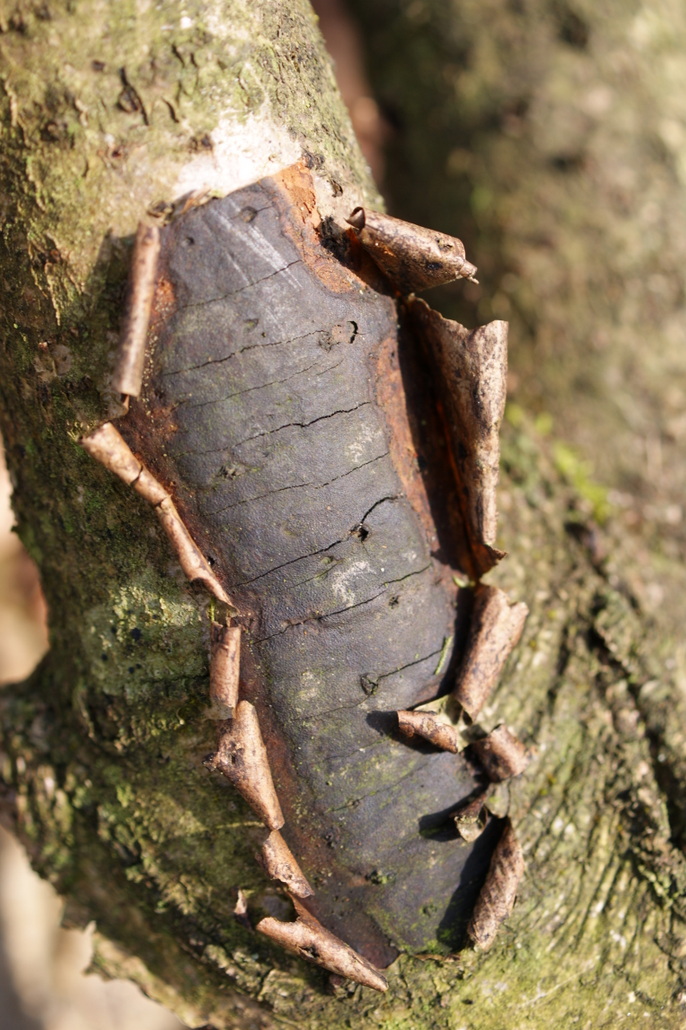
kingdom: Fungi
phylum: Ascomycota
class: Sordariomycetes
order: Xylariales
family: Diatrypaceae
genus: Diatrype
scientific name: Diatrype stigma
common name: udbredt kulskorpe
